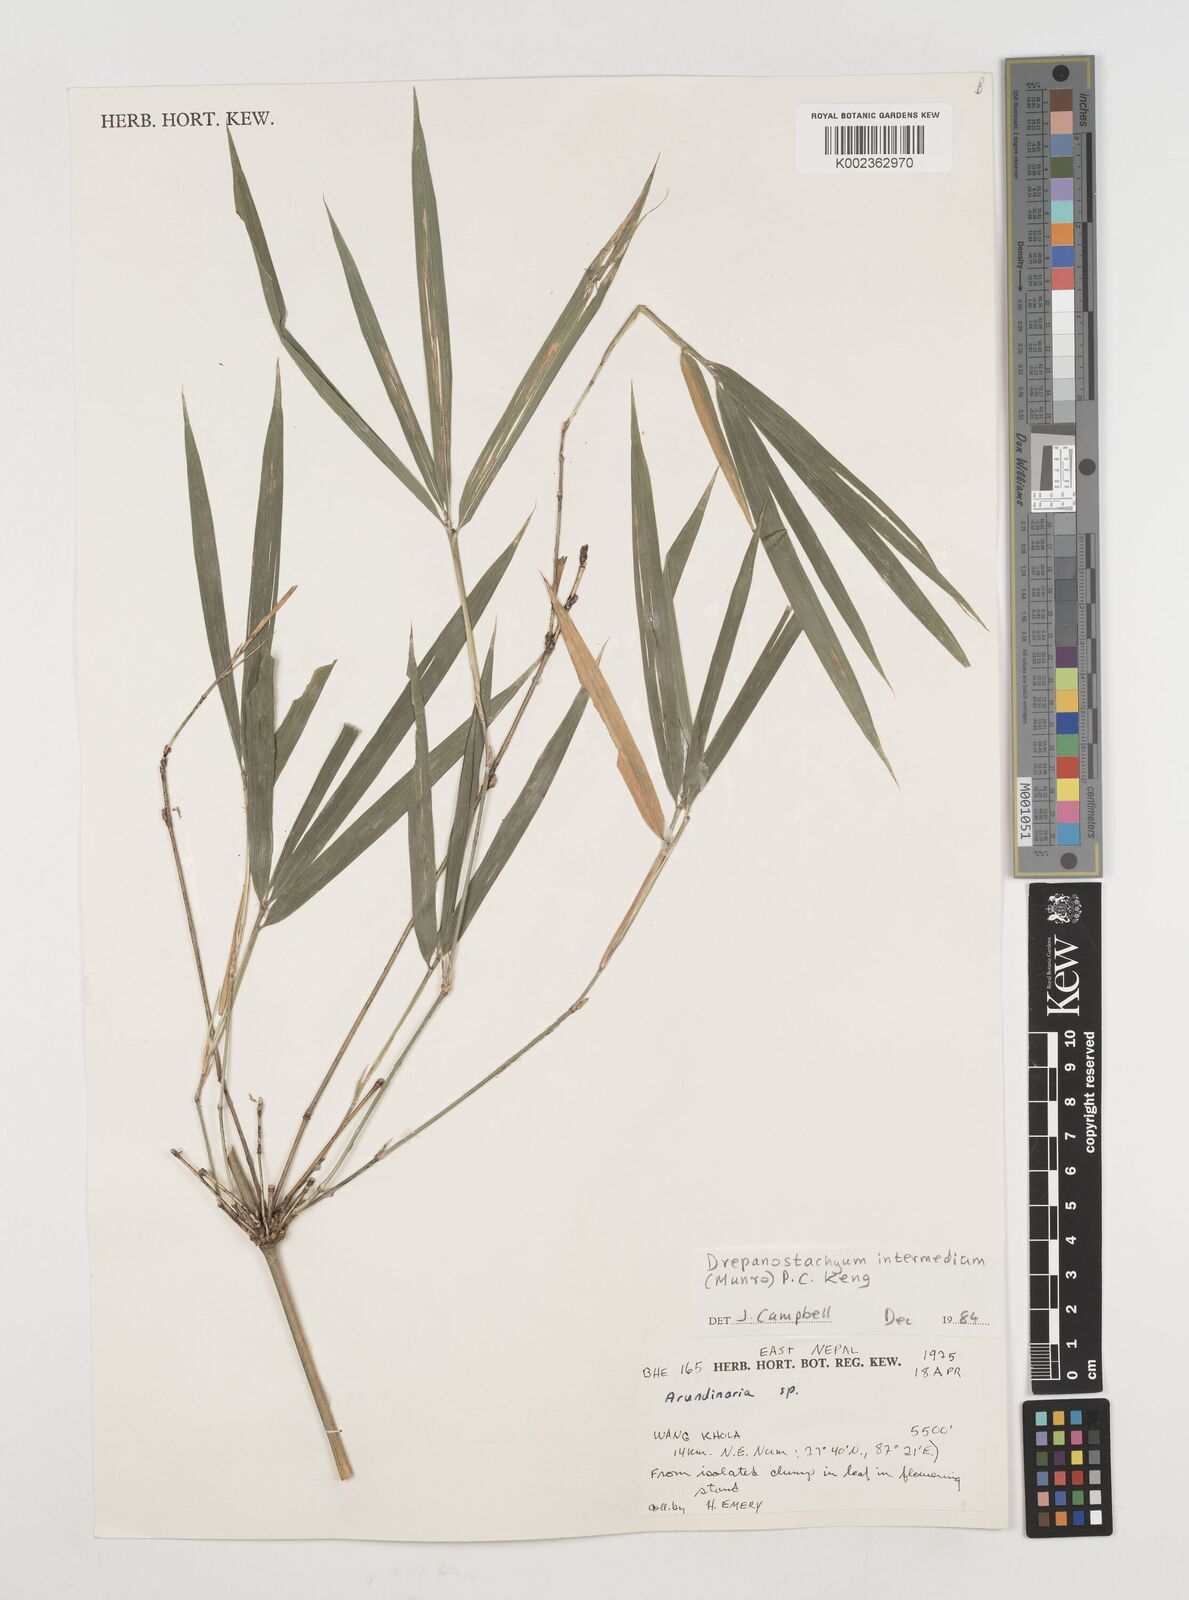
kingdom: Plantae
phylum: Tracheophyta
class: Liliopsida
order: Poales
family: Poaceae
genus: Drepanostachyum
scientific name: Drepanostachyum intermedium
